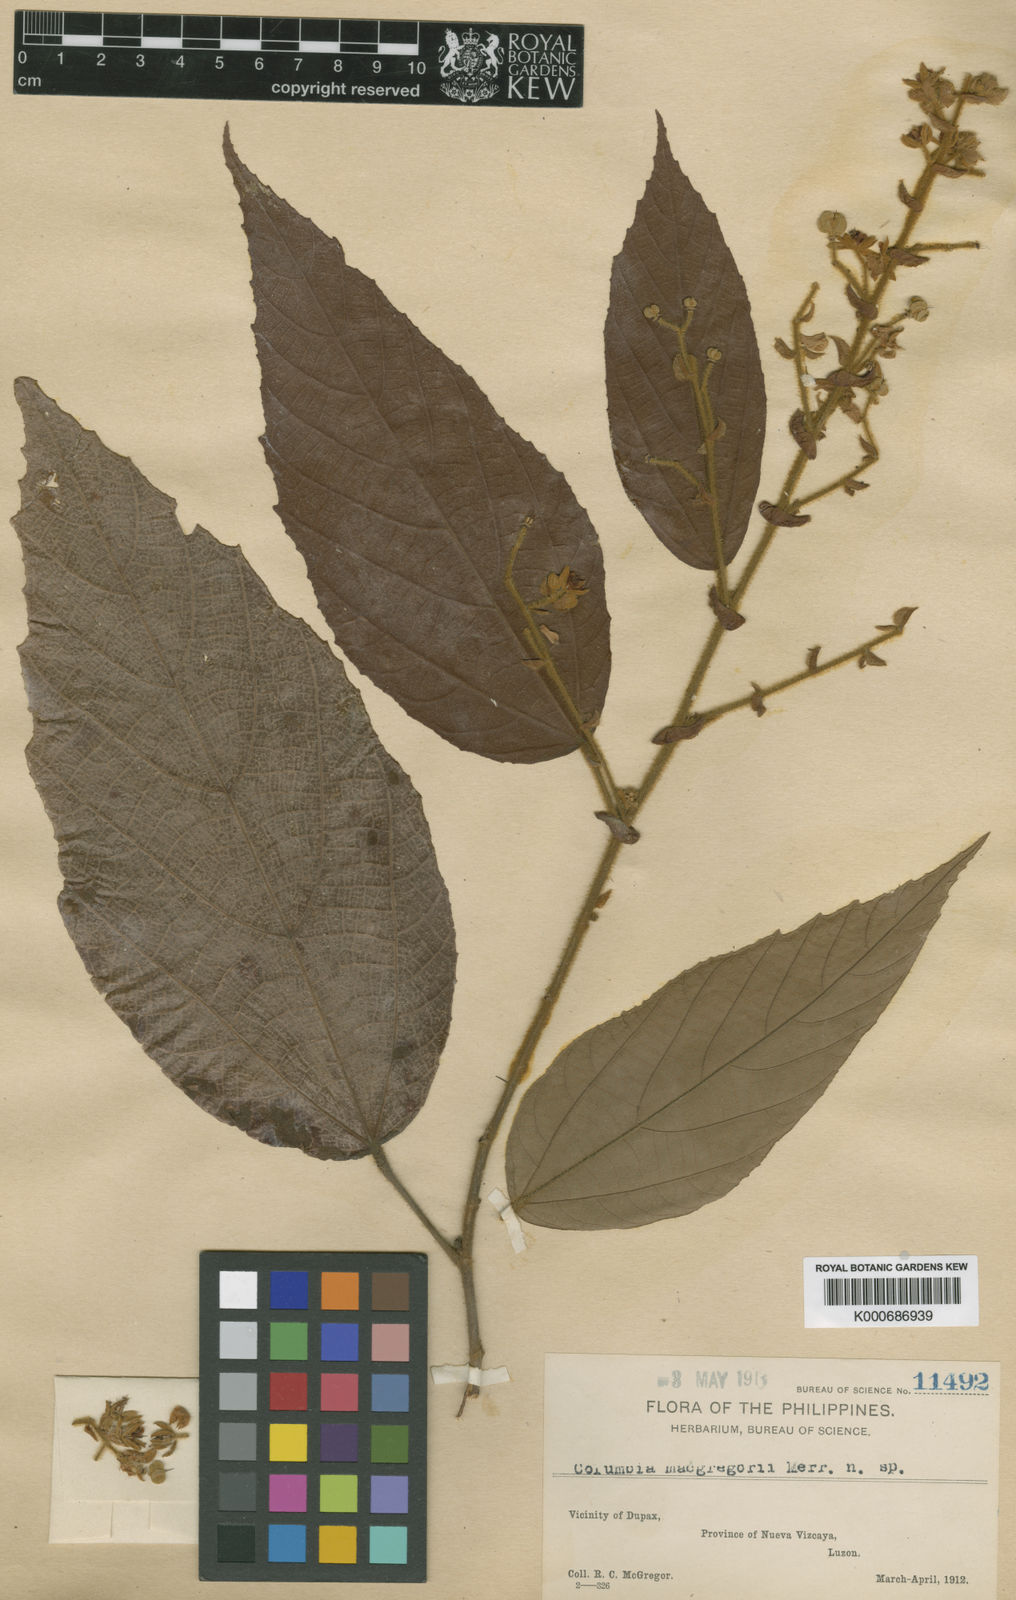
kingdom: Plantae
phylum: Tracheophyta
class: Magnoliopsida
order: Malvales
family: Malvaceae
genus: Colona
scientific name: Colona
